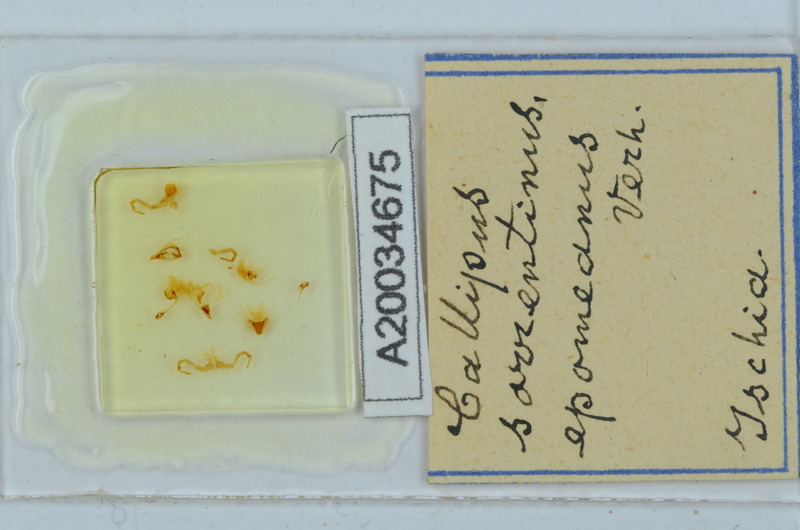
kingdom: Animalia
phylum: Arthropoda
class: Diplopoda
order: Callipodida
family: Callipodidae
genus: Callipus
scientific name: Callipus foetidissimus
